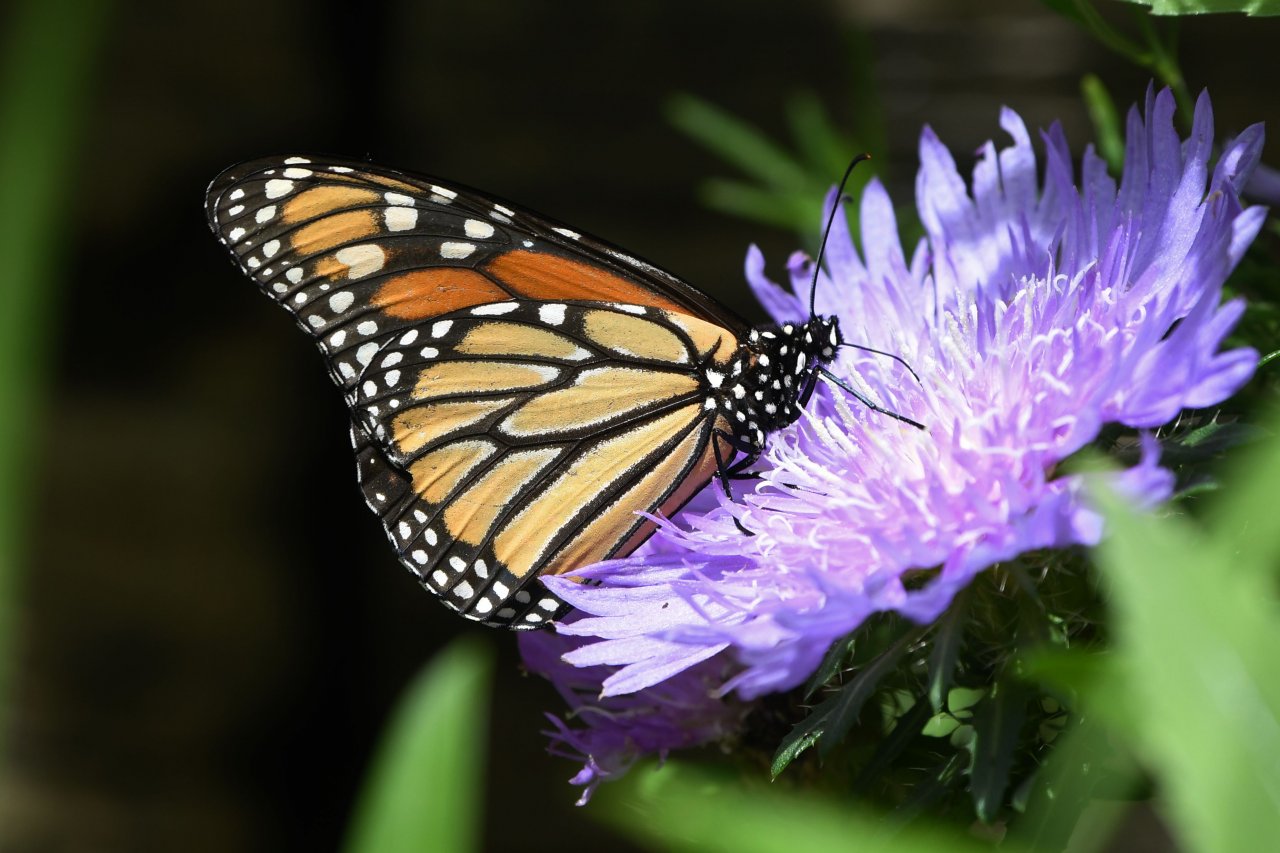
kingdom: Animalia
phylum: Arthropoda
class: Insecta
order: Lepidoptera
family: Nymphalidae
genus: Danaus
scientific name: Danaus plexippus
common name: Monarch
